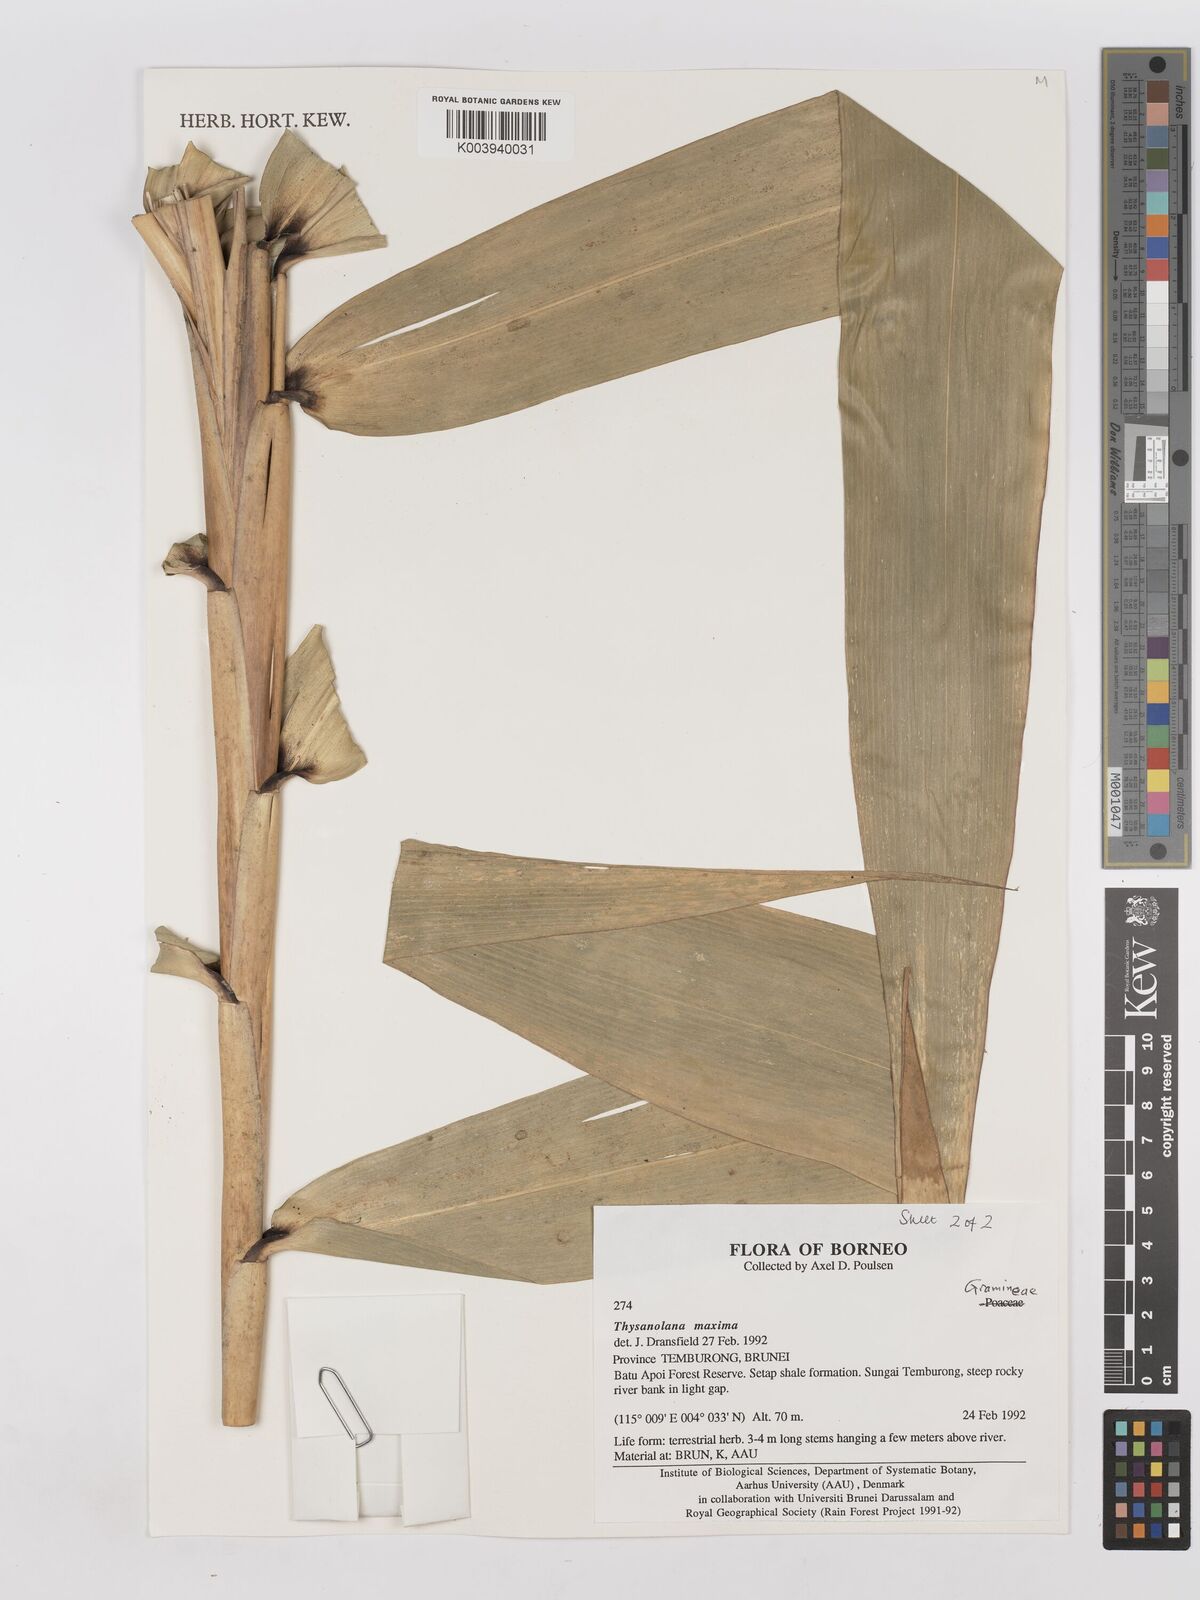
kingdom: Plantae
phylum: Tracheophyta
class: Liliopsida
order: Poales
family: Poaceae
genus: Thysanolaena
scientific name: Thysanolaena latifolia
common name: Tiger grass
